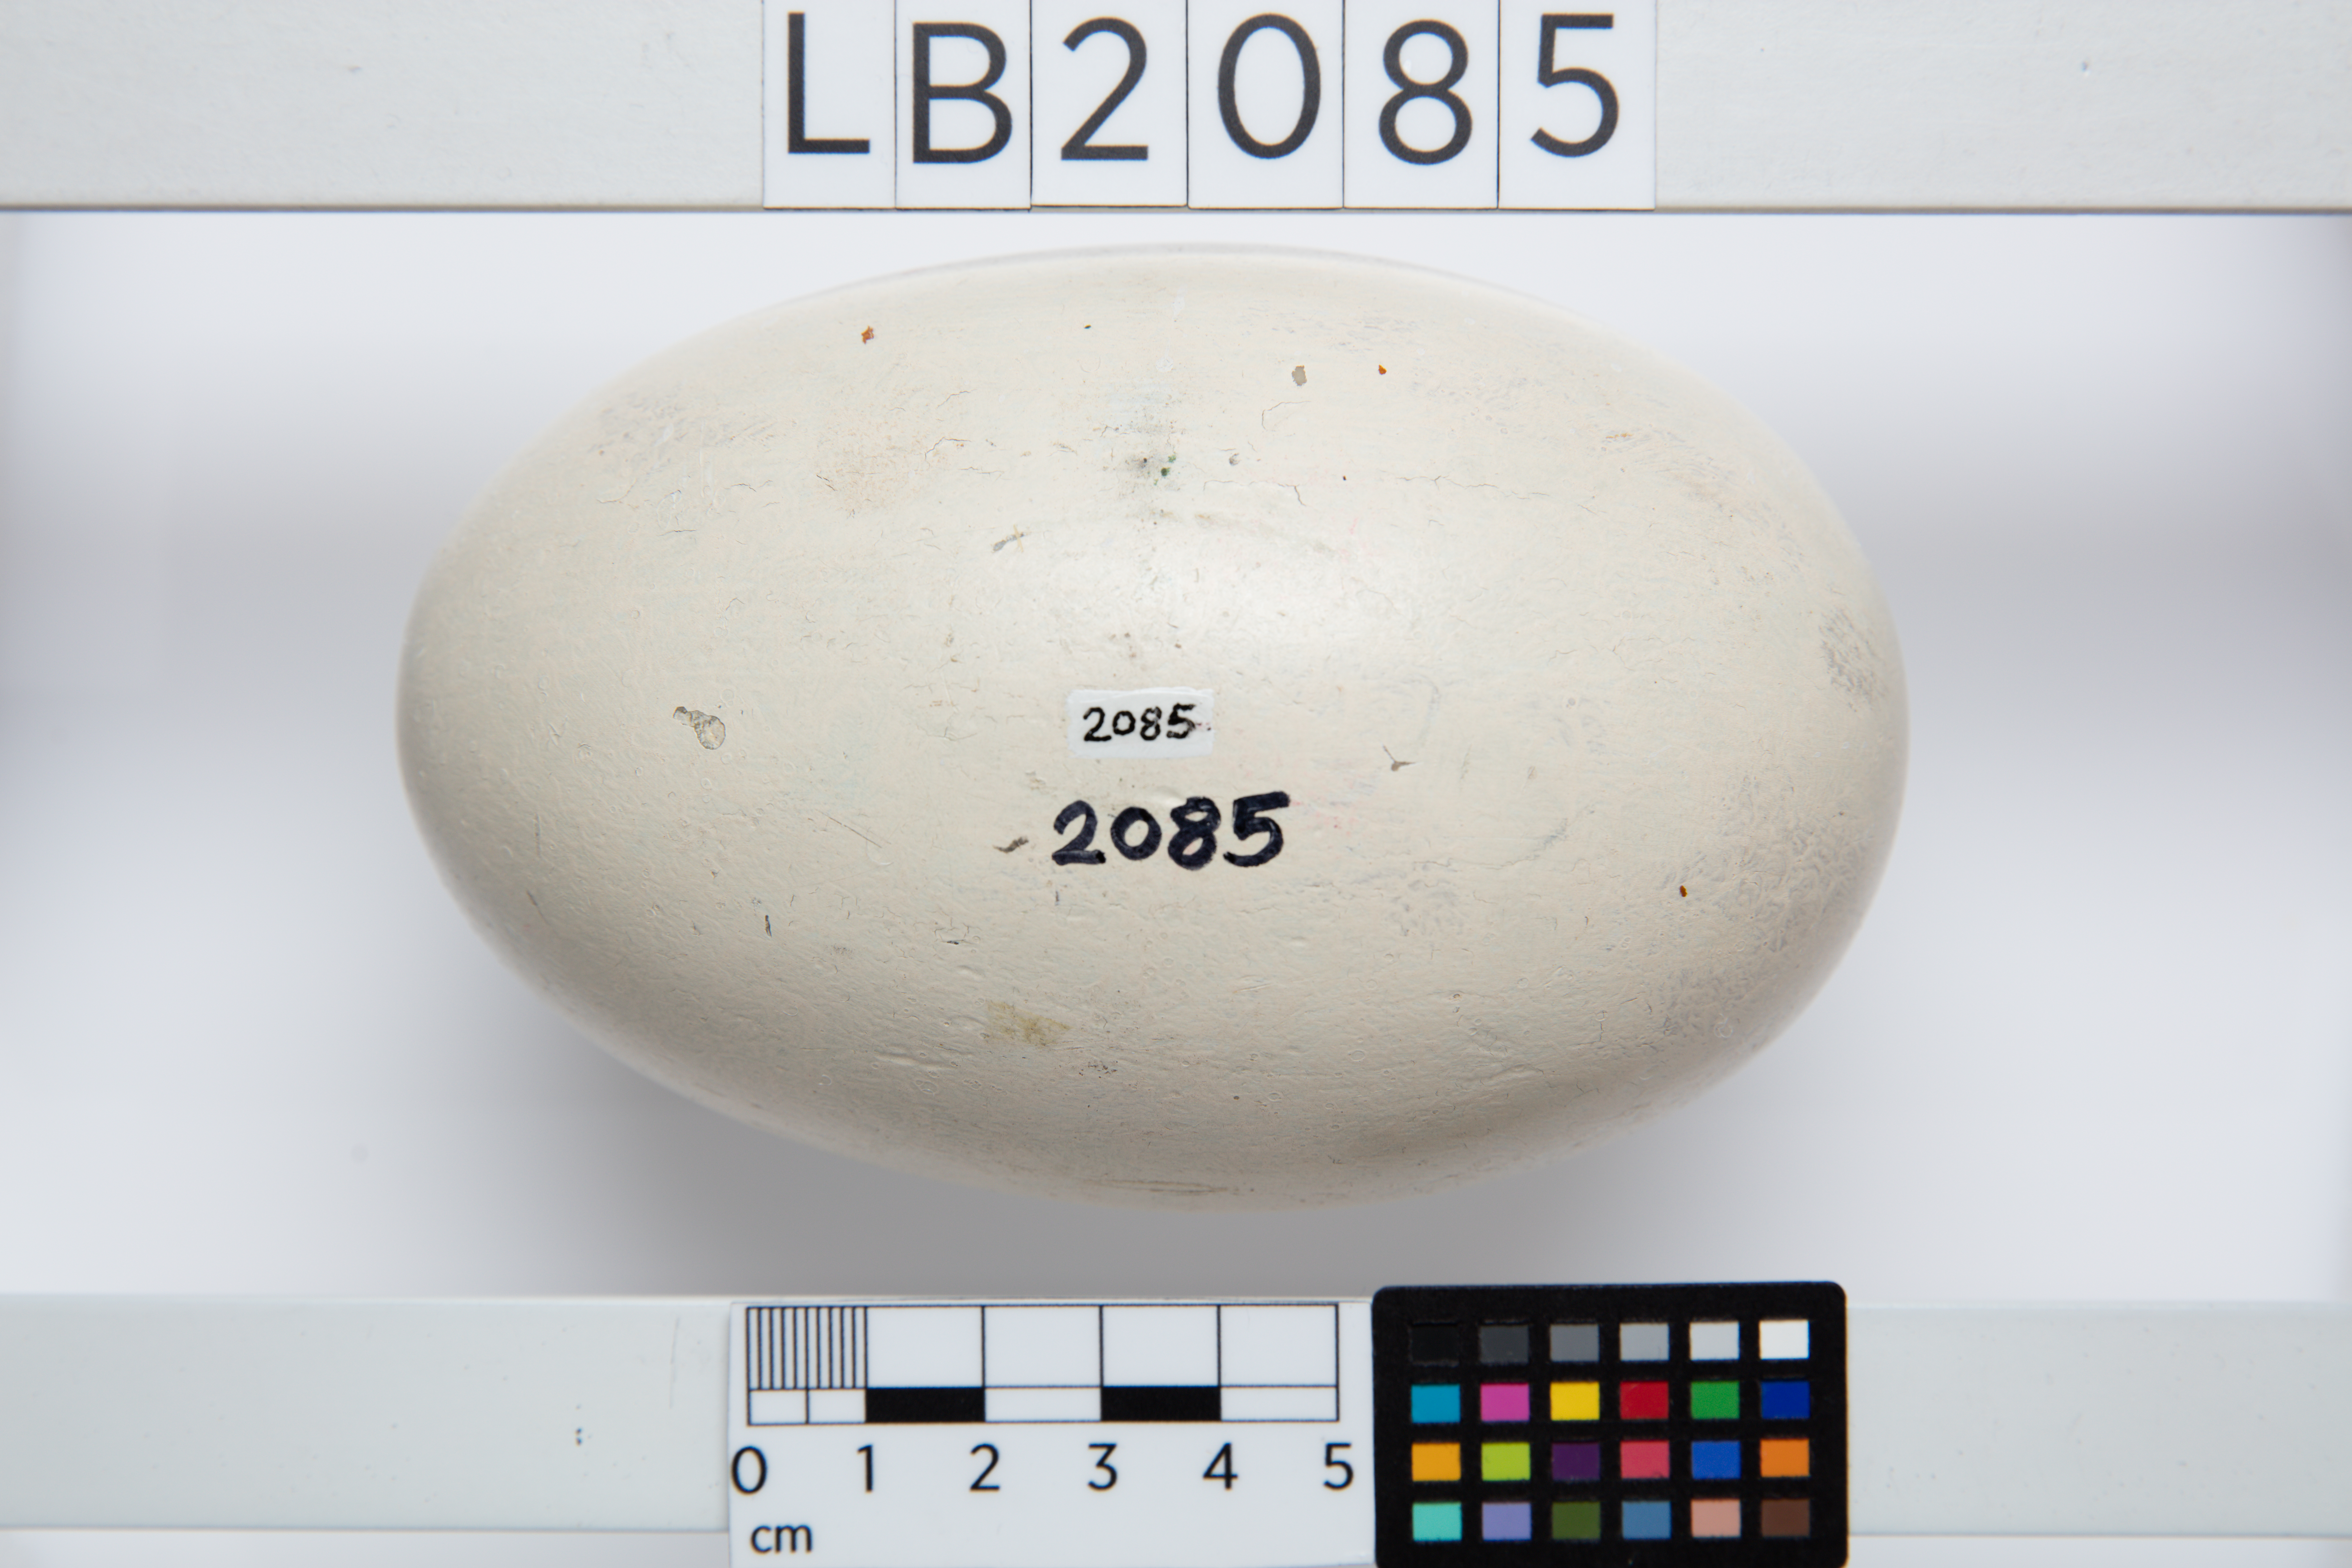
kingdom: Animalia
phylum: Chordata
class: Aves
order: Apterygiformes
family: Apterygidae
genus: Apteryx
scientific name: Apteryx
